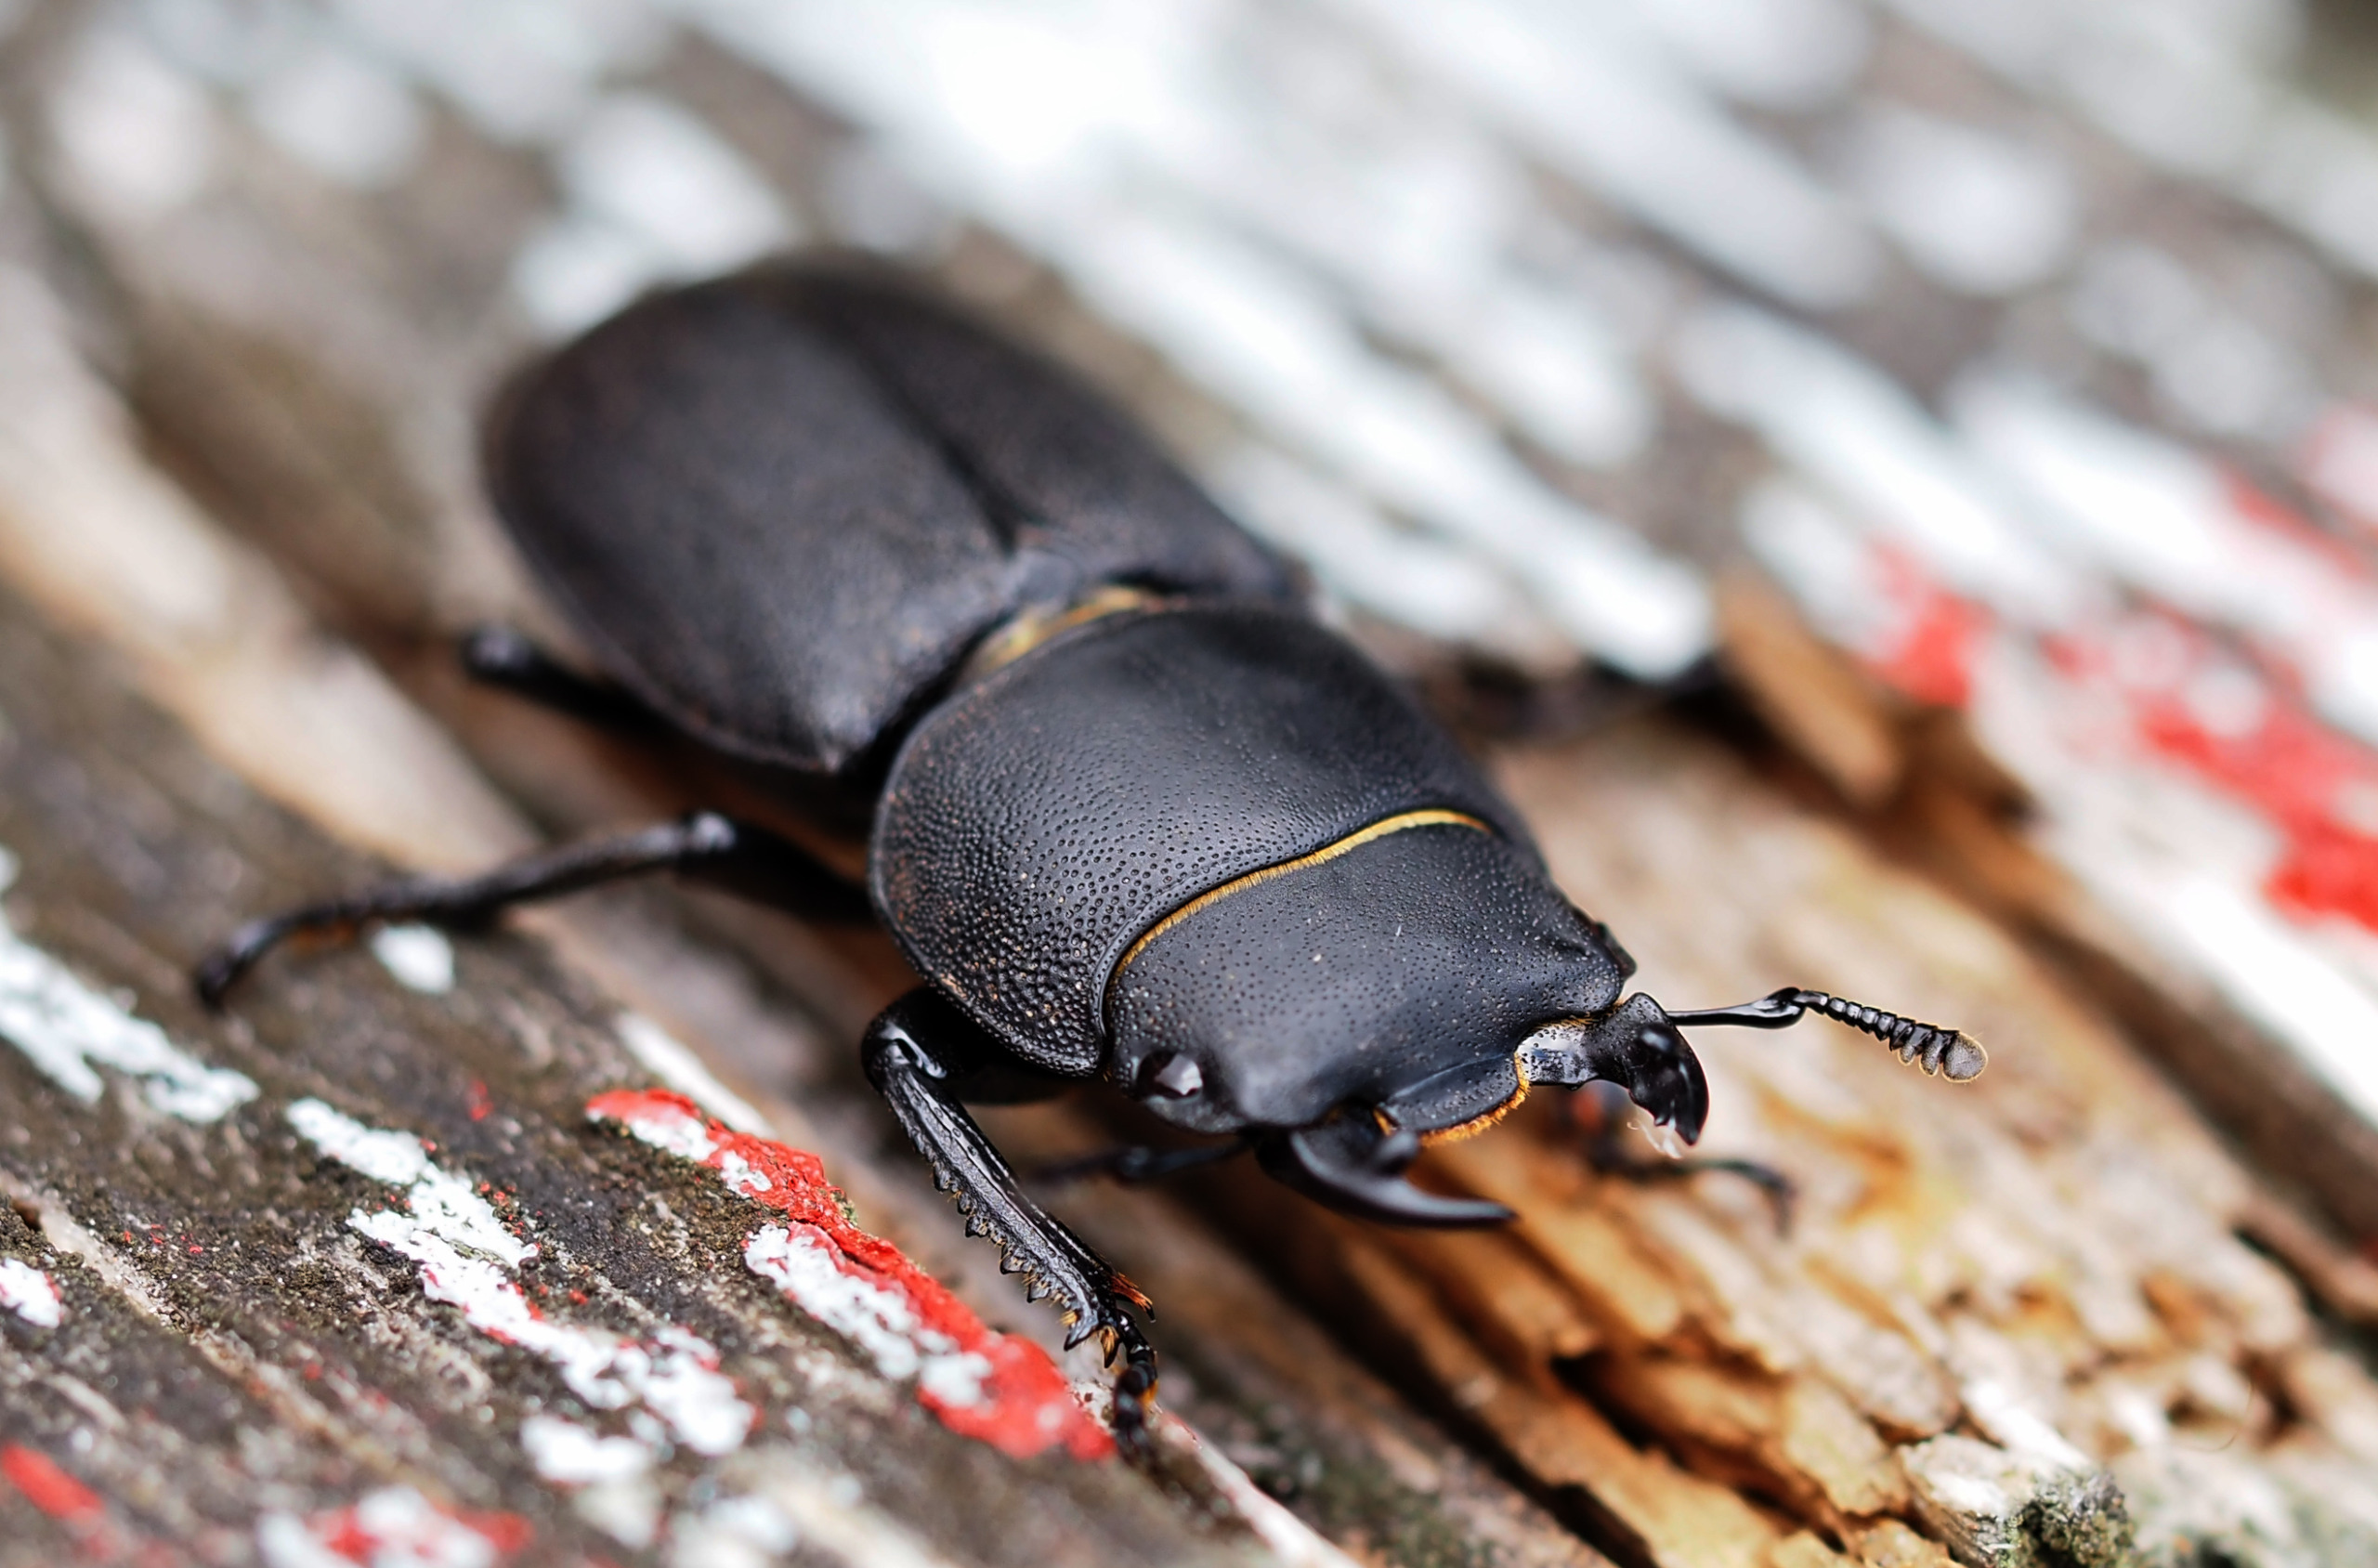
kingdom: Animalia
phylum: Arthropoda
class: Insecta
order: Coleoptera
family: Lucanidae
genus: Dorcus
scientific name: Dorcus parallelipipedus
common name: Bøghjort
